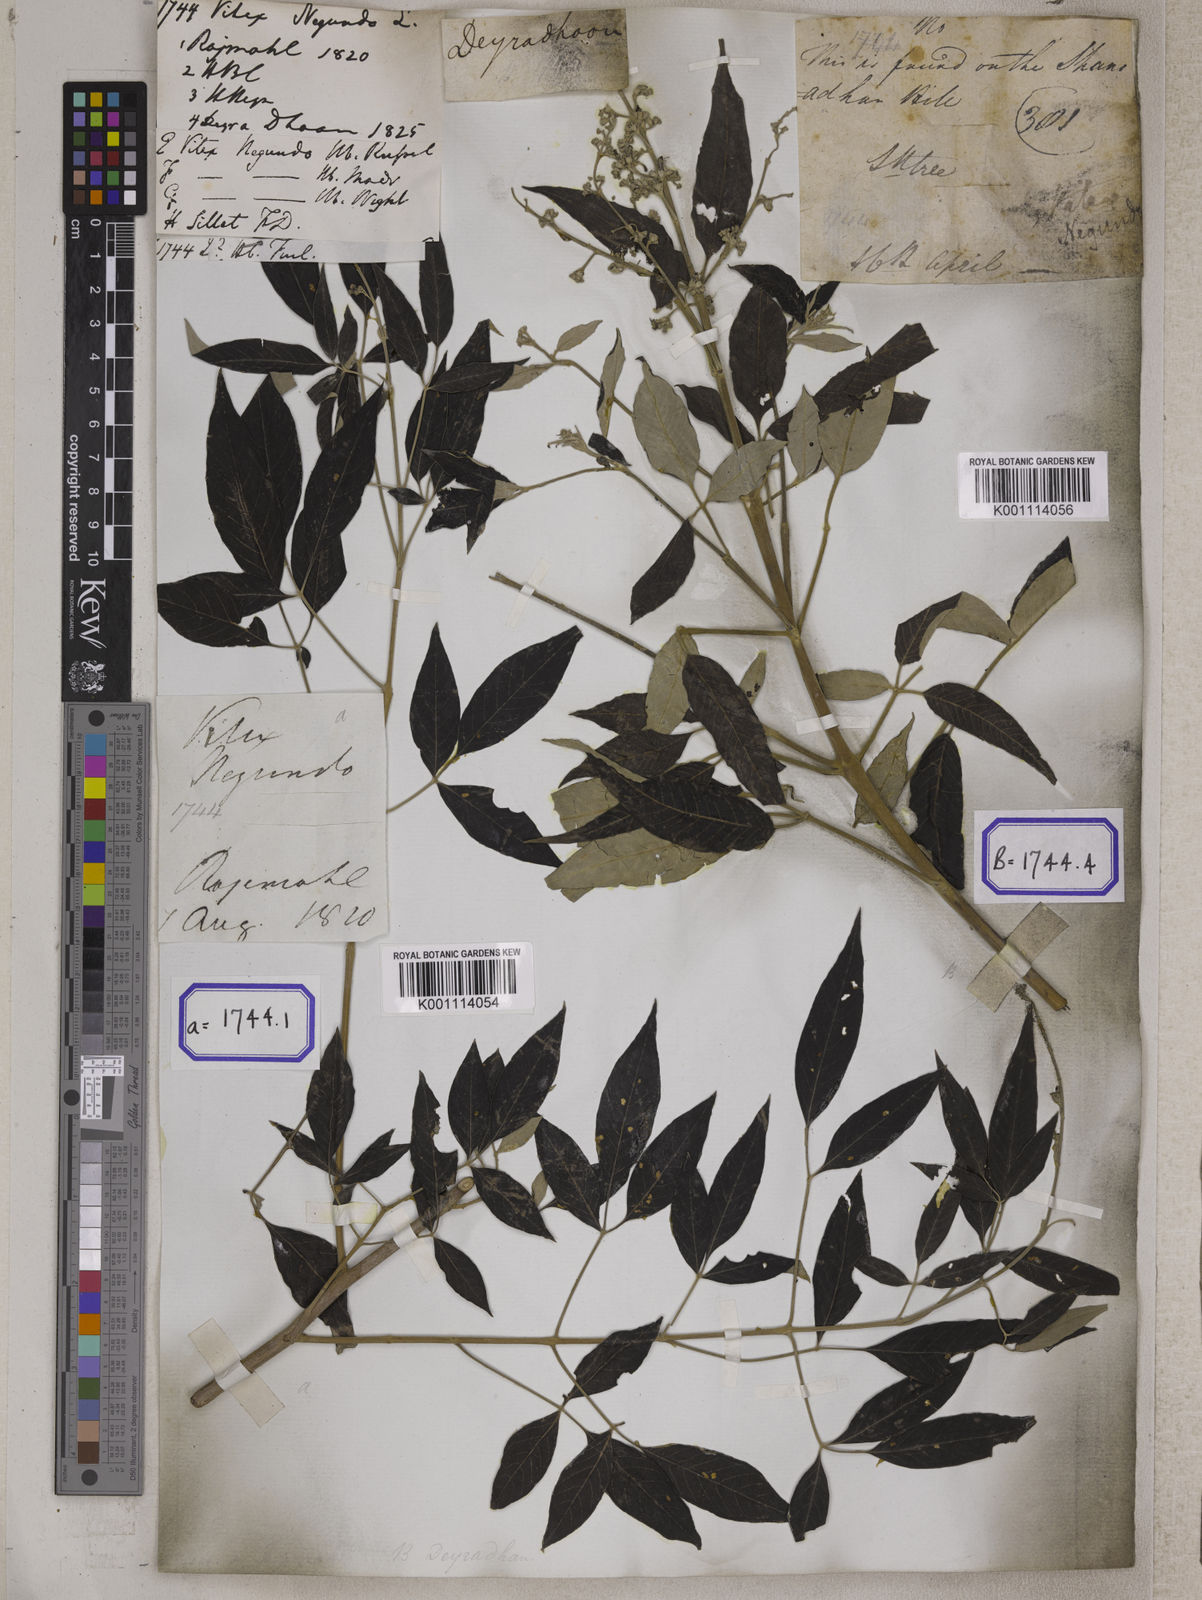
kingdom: Plantae
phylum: Tracheophyta
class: Magnoliopsida
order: Lamiales
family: Lamiaceae
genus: Vitex
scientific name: Vitex negundo
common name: Chinese chastetree
